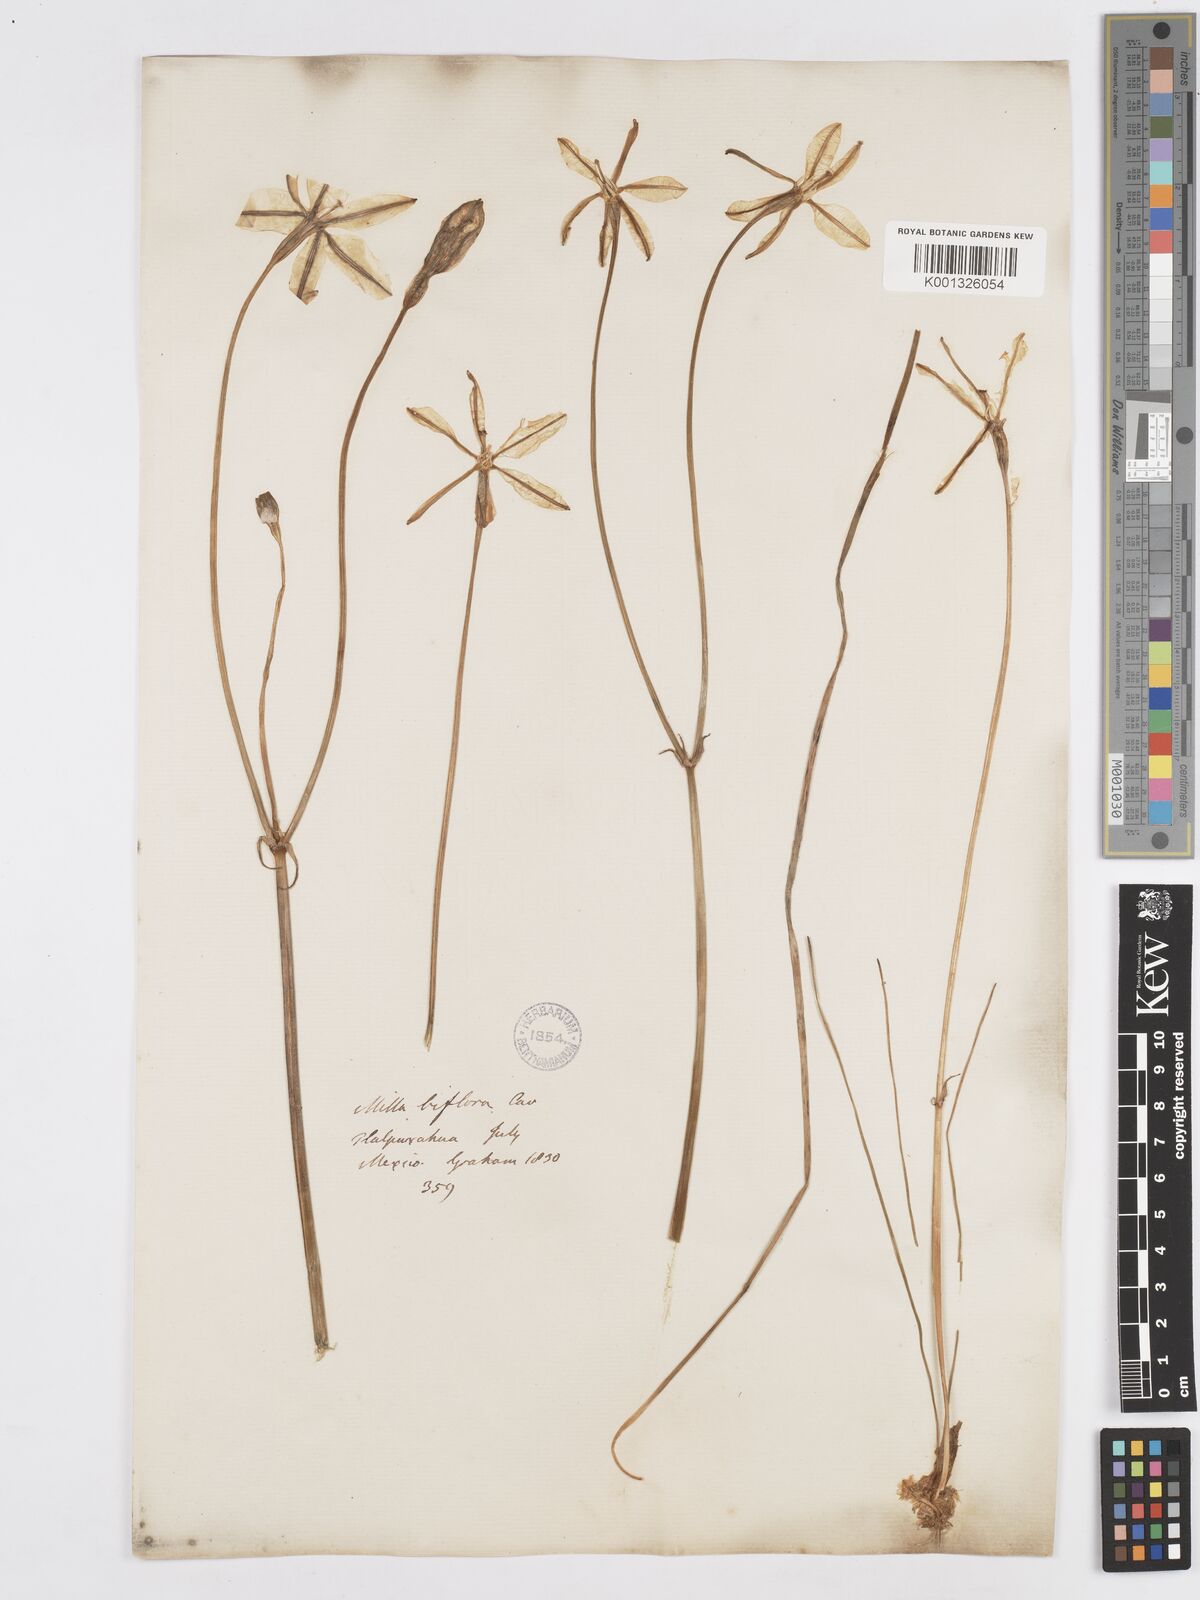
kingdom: Plantae
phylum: Tracheophyta
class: Liliopsida
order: Asparagales
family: Asparagaceae
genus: Milla
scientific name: Milla biflora
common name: Mexican-star
